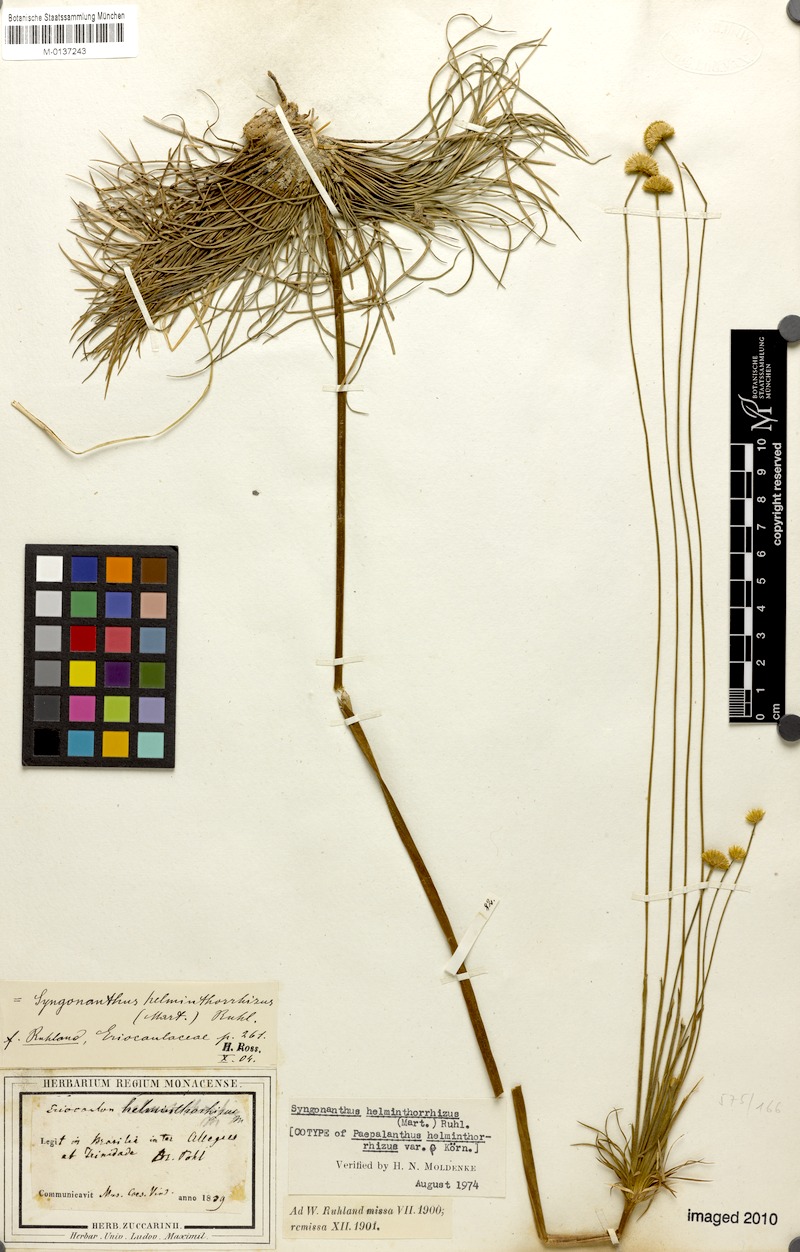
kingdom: Plantae
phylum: Tracheophyta
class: Liliopsida
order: Poales
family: Eriocaulaceae
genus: Syngonanthus
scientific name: Syngonanthus helminthorrhizus
